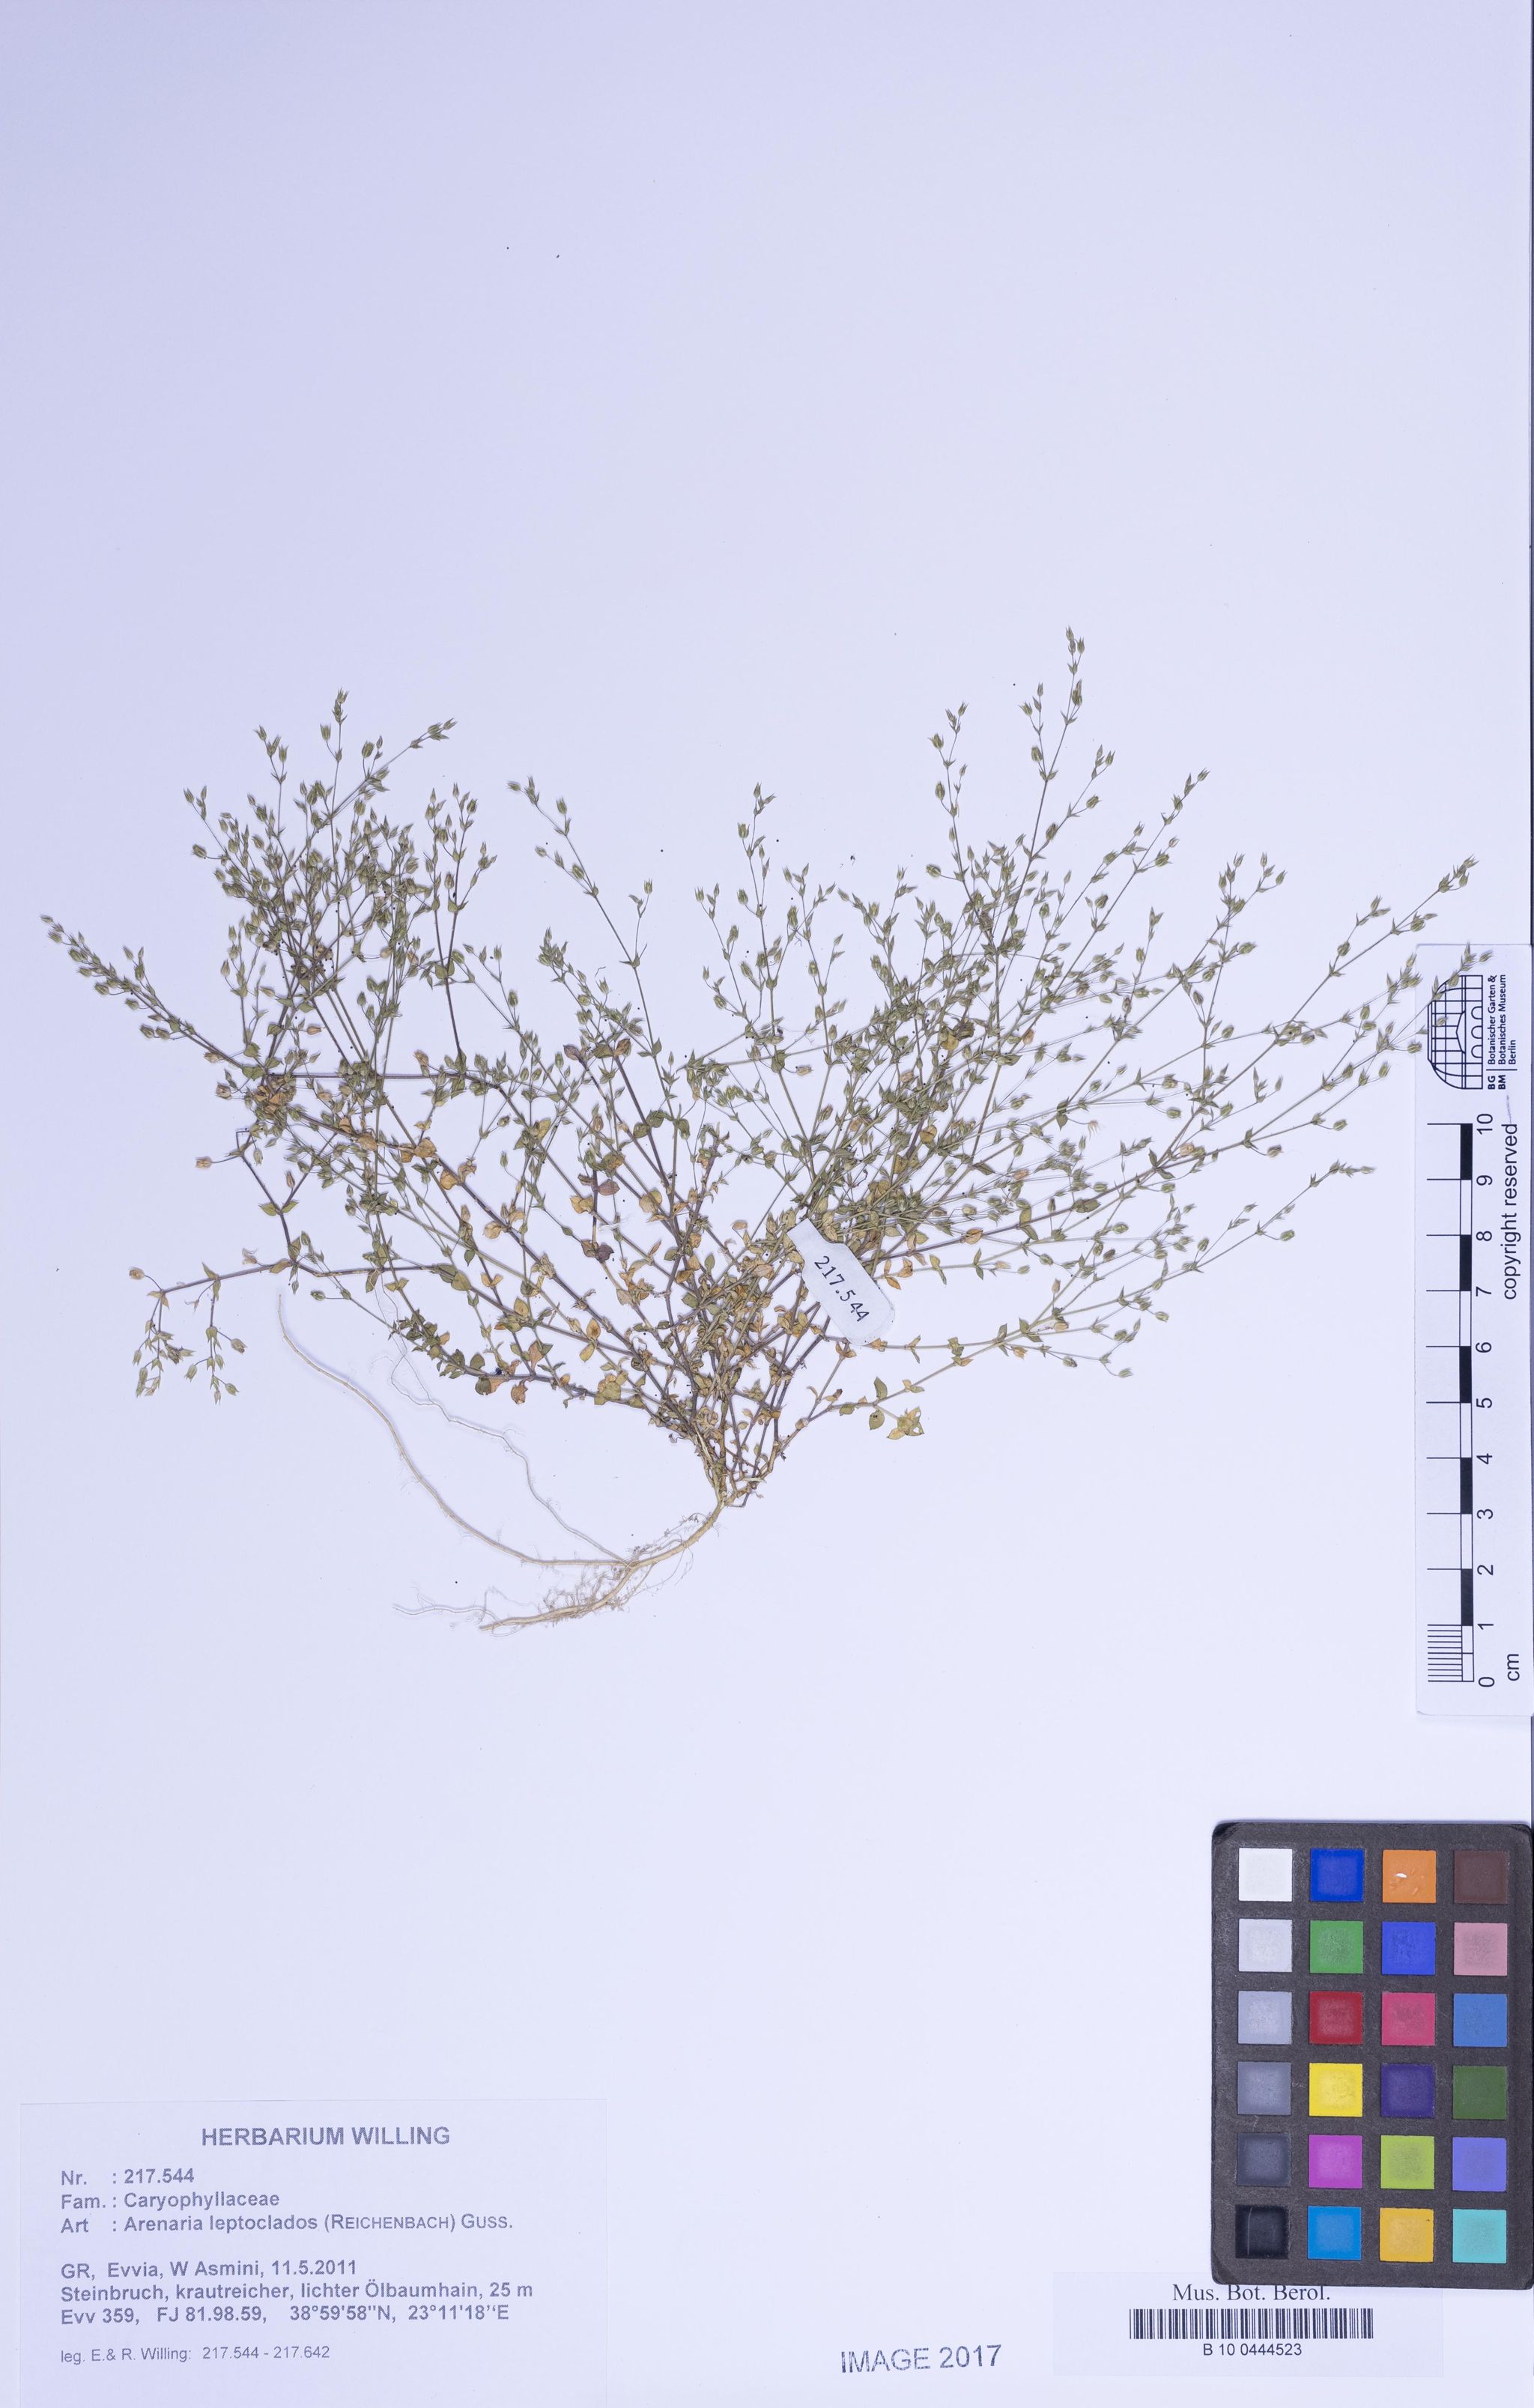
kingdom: Plantae
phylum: Tracheophyta
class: Magnoliopsida
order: Caryophyllales
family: Caryophyllaceae
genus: Arenaria
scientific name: Arenaria leptoclados
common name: Thyme-leaved sandwort
